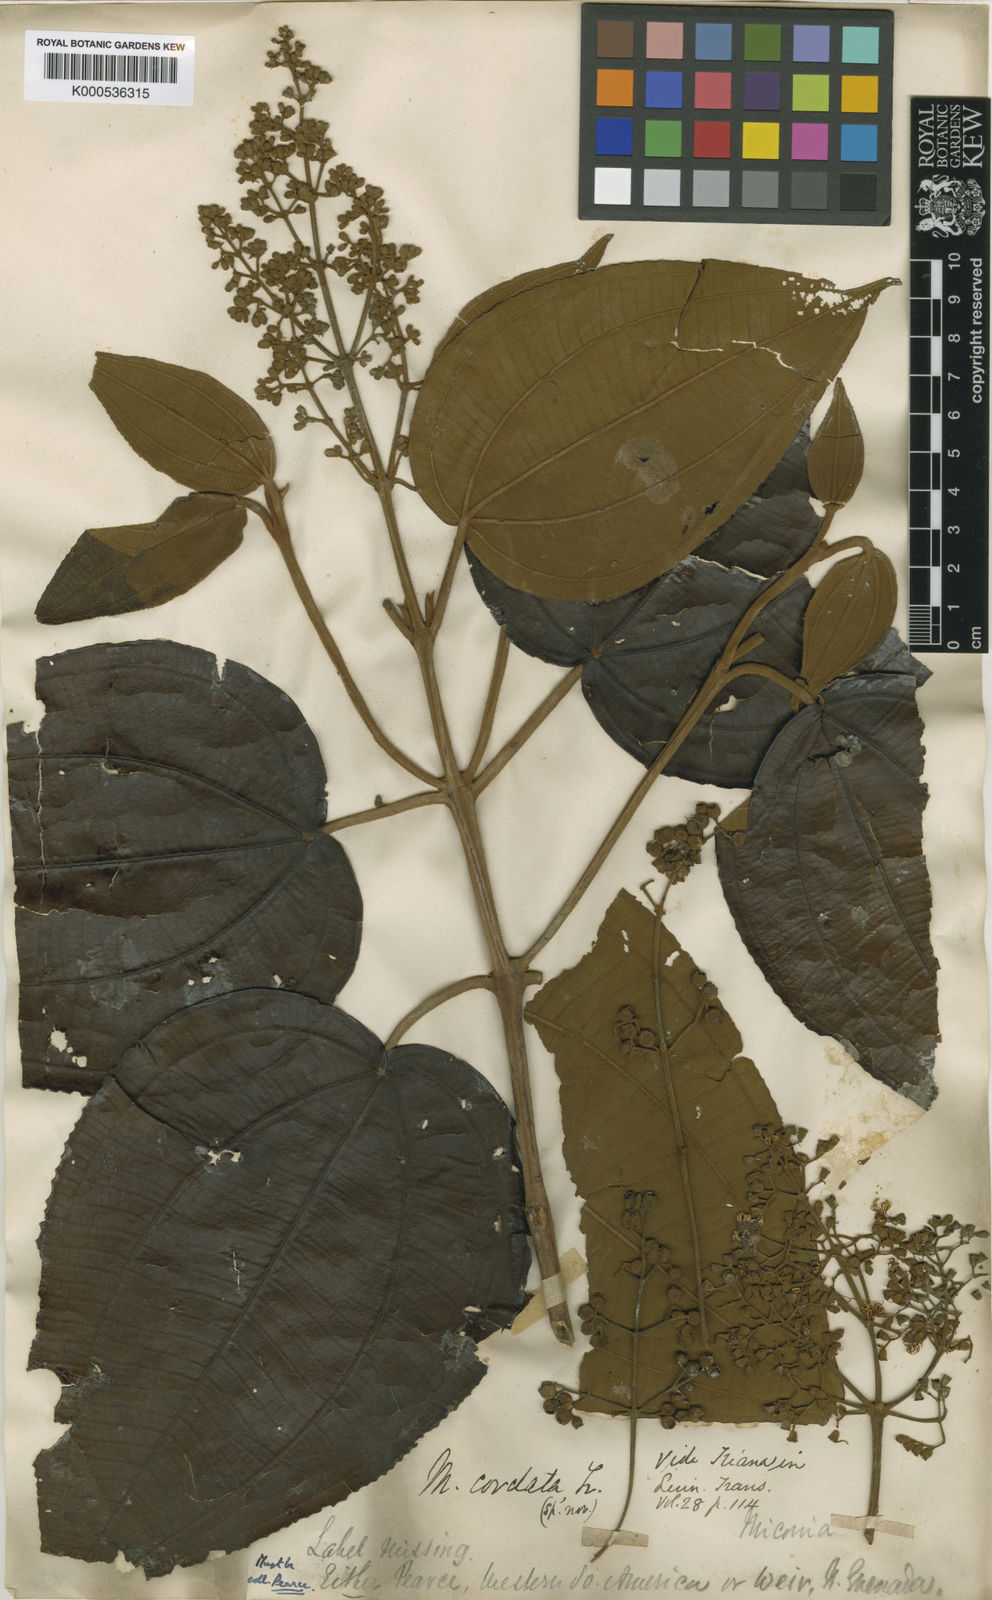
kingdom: Plantae
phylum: Tracheophyta
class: Magnoliopsida
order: Myrtales
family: Melastomataceae
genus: Miconia
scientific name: Miconia cordata
